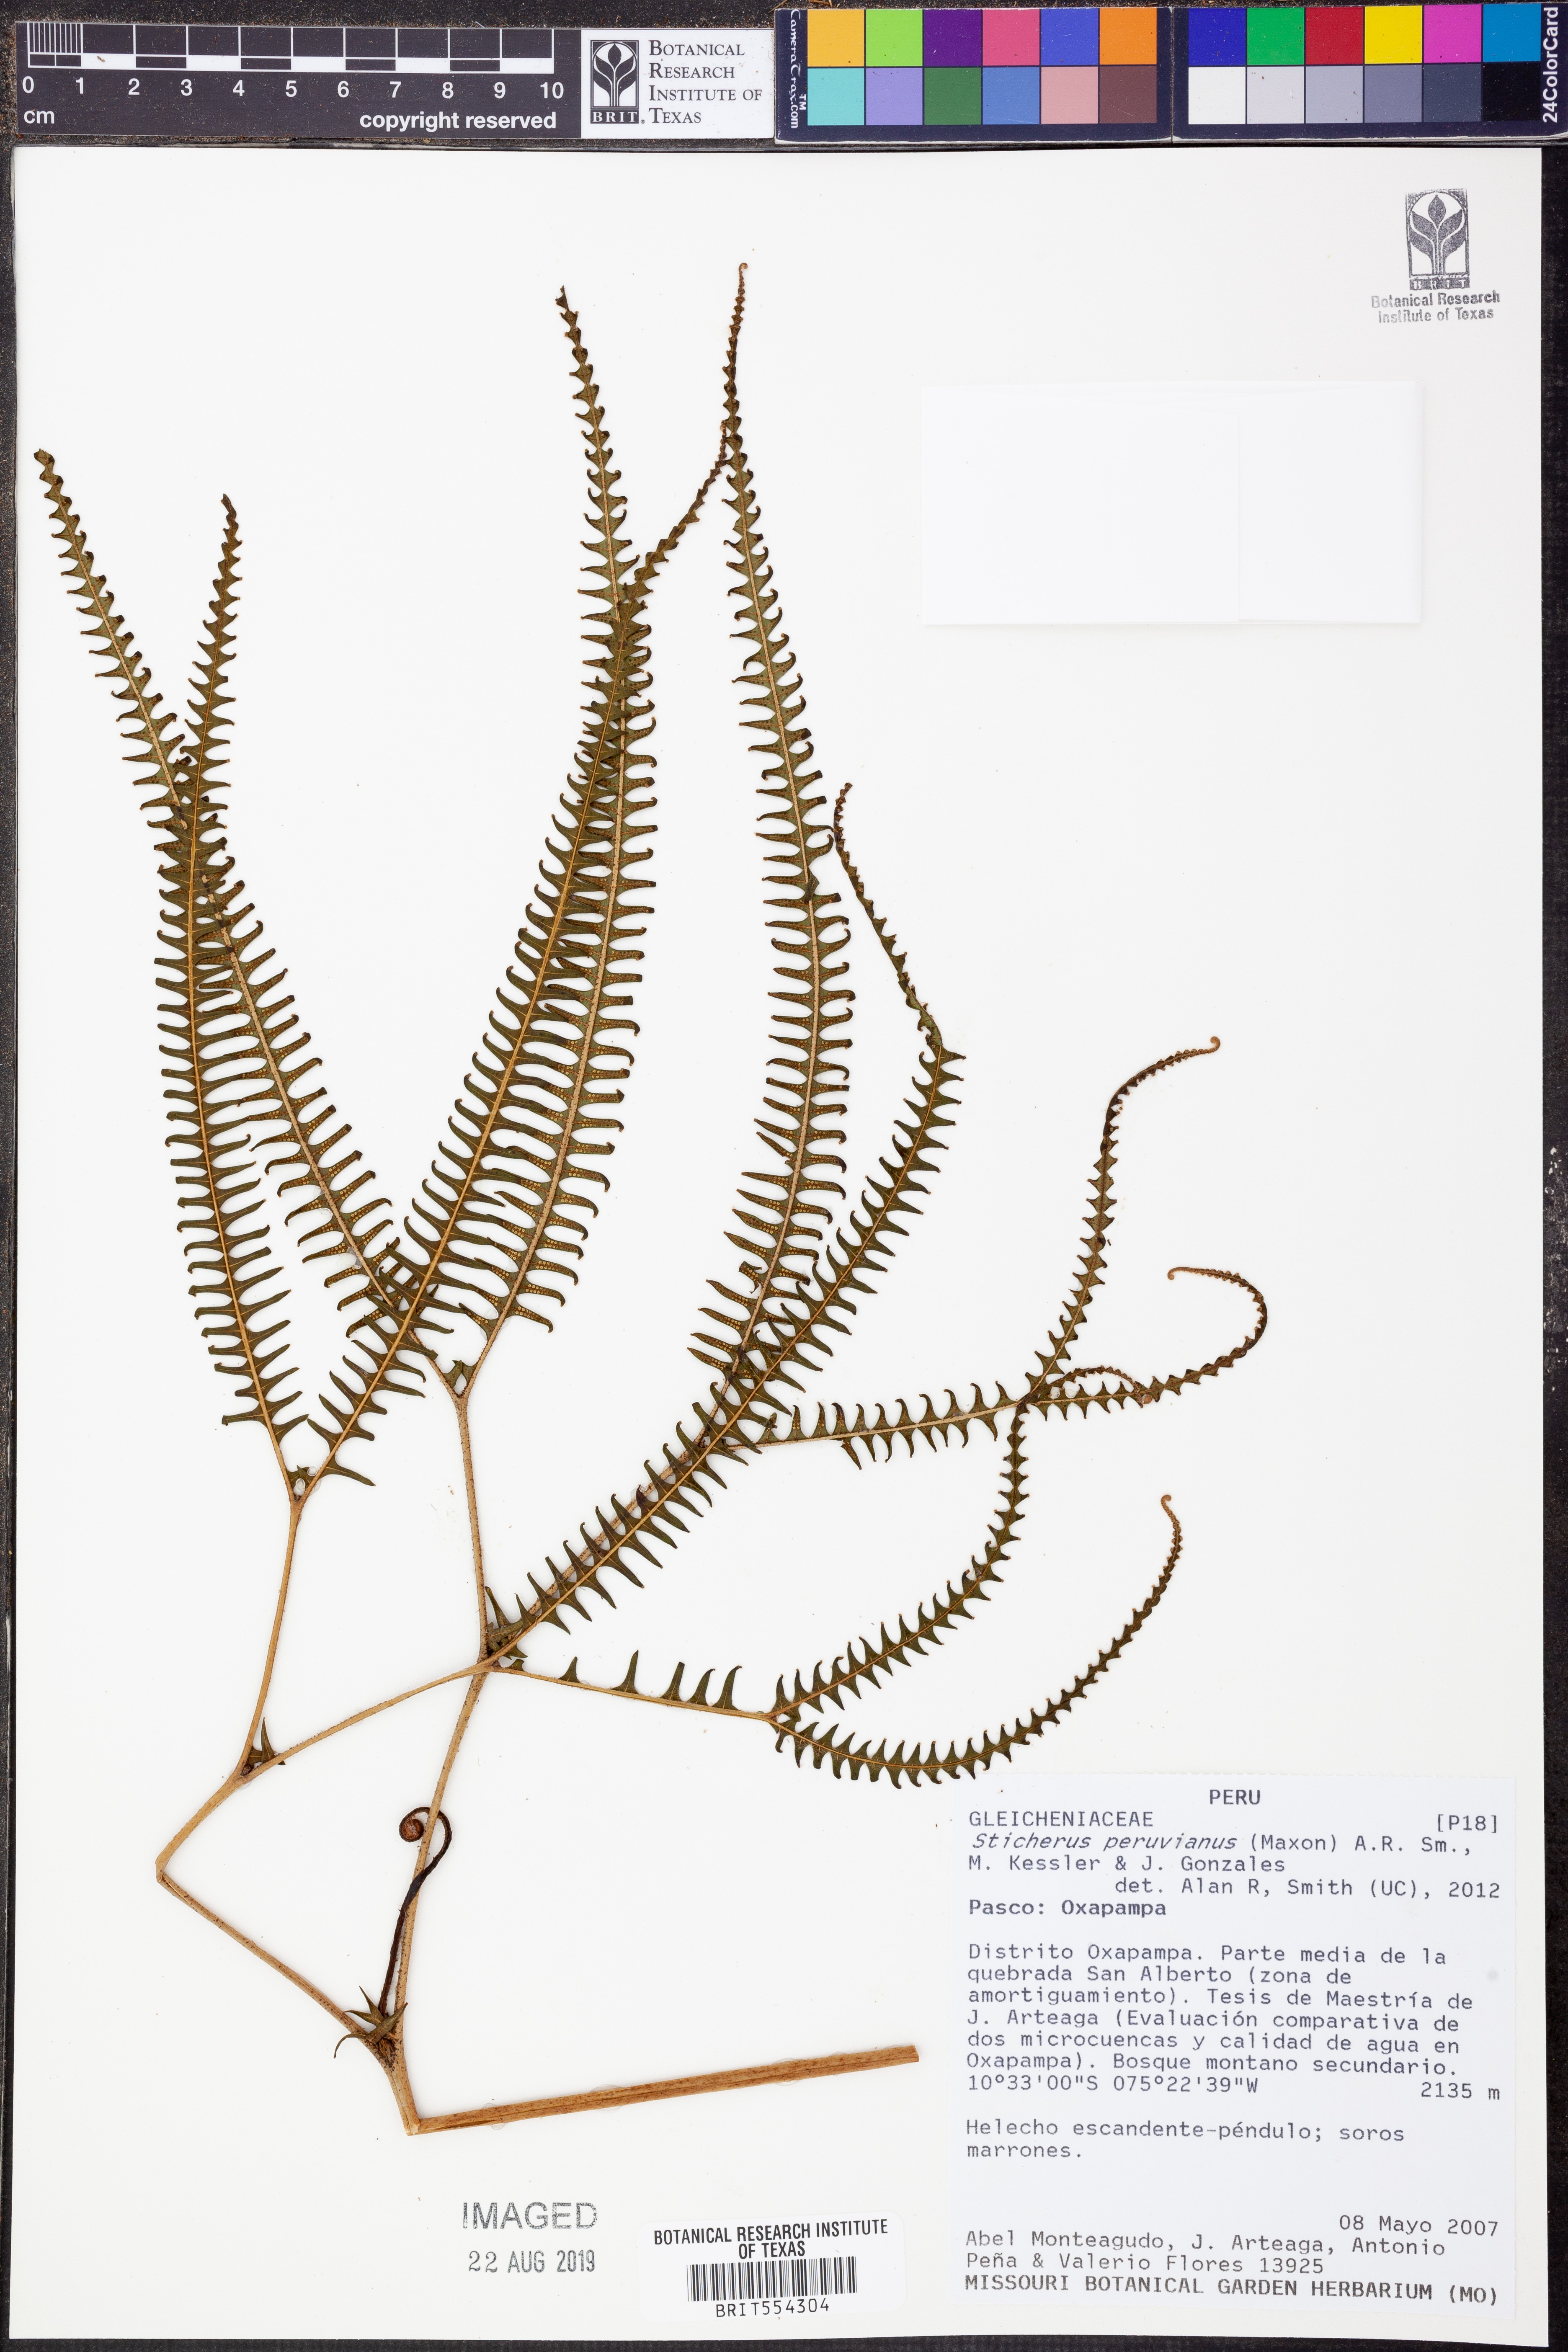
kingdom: Plantae
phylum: Tracheophyta
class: Polypodiopsida
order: Gleicheniales
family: Gleicheniaceae
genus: Sticherus
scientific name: Sticherus peruvianus
